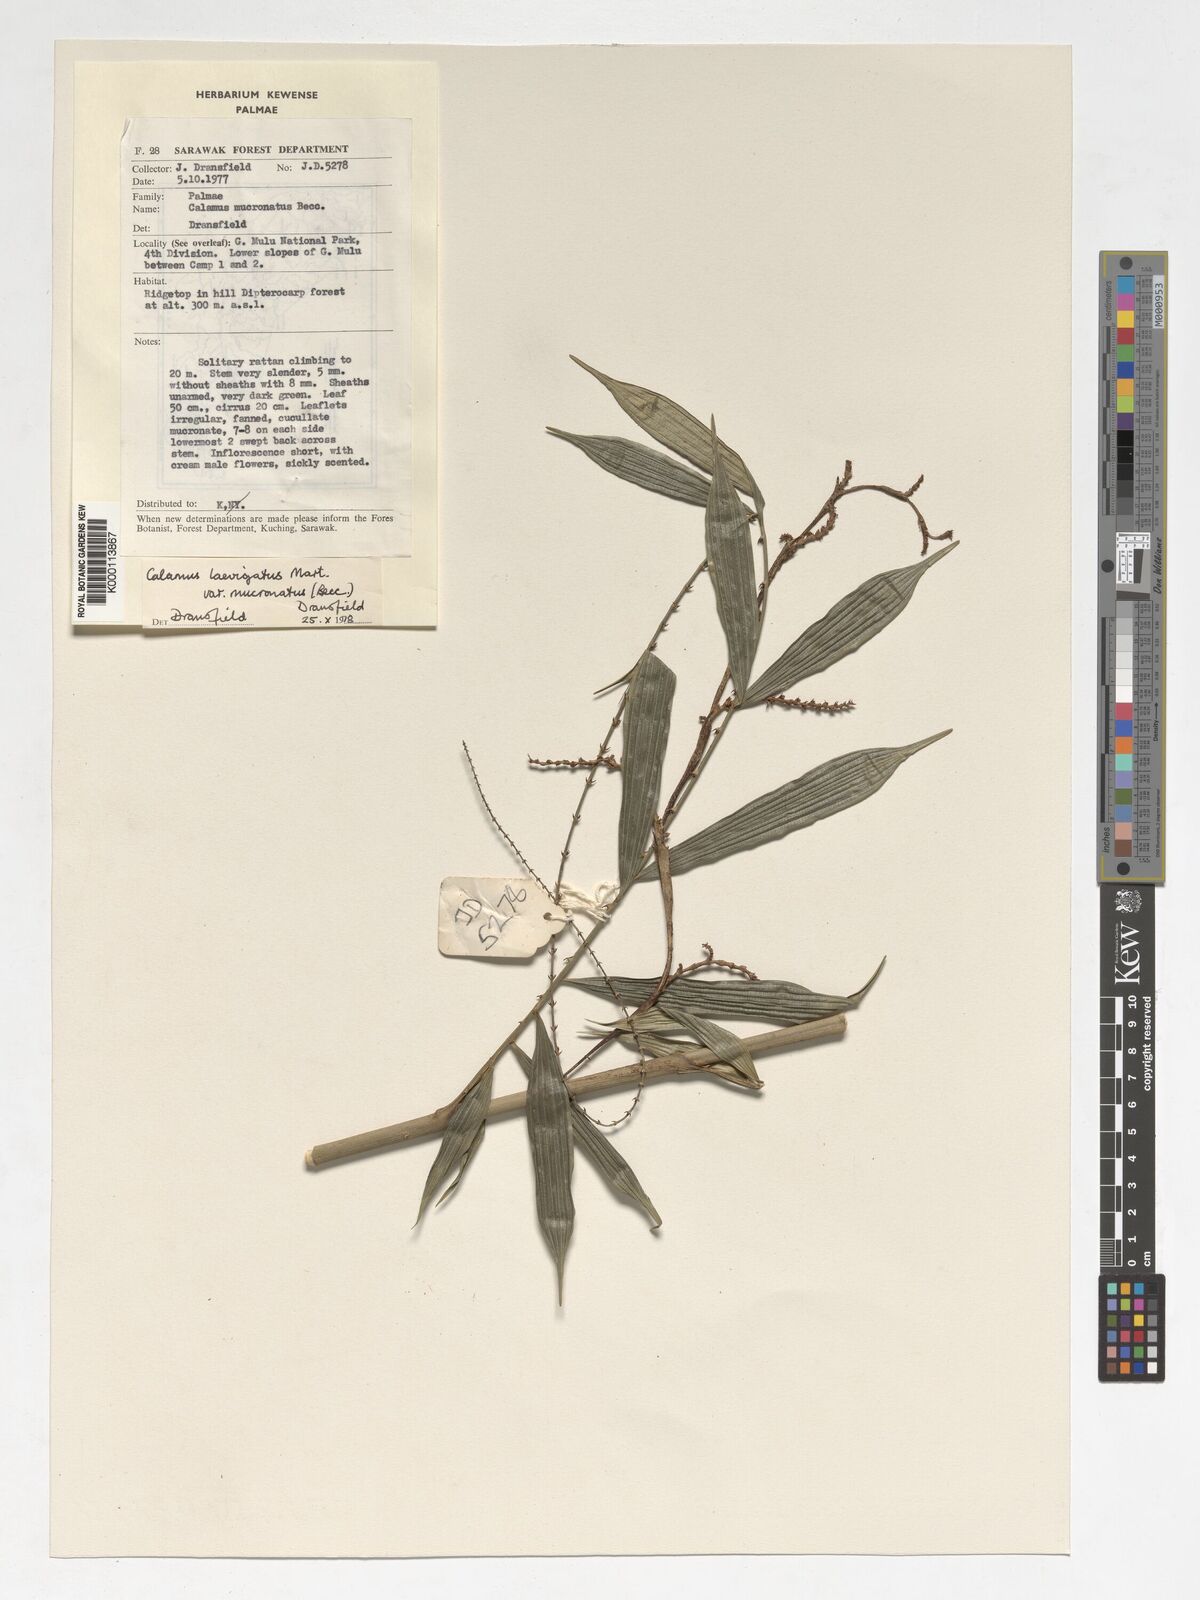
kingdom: Plantae
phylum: Tracheophyta
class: Liliopsida
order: Arecales
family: Arecaceae
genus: Calamus
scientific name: Calamus plicatus
